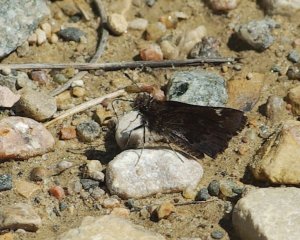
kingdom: Animalia
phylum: Arthropoda
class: Insecta
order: Lepidoptera
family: Hesperiidae
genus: Mastor
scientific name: Mastor vialis
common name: Common Roadside-Skipper
